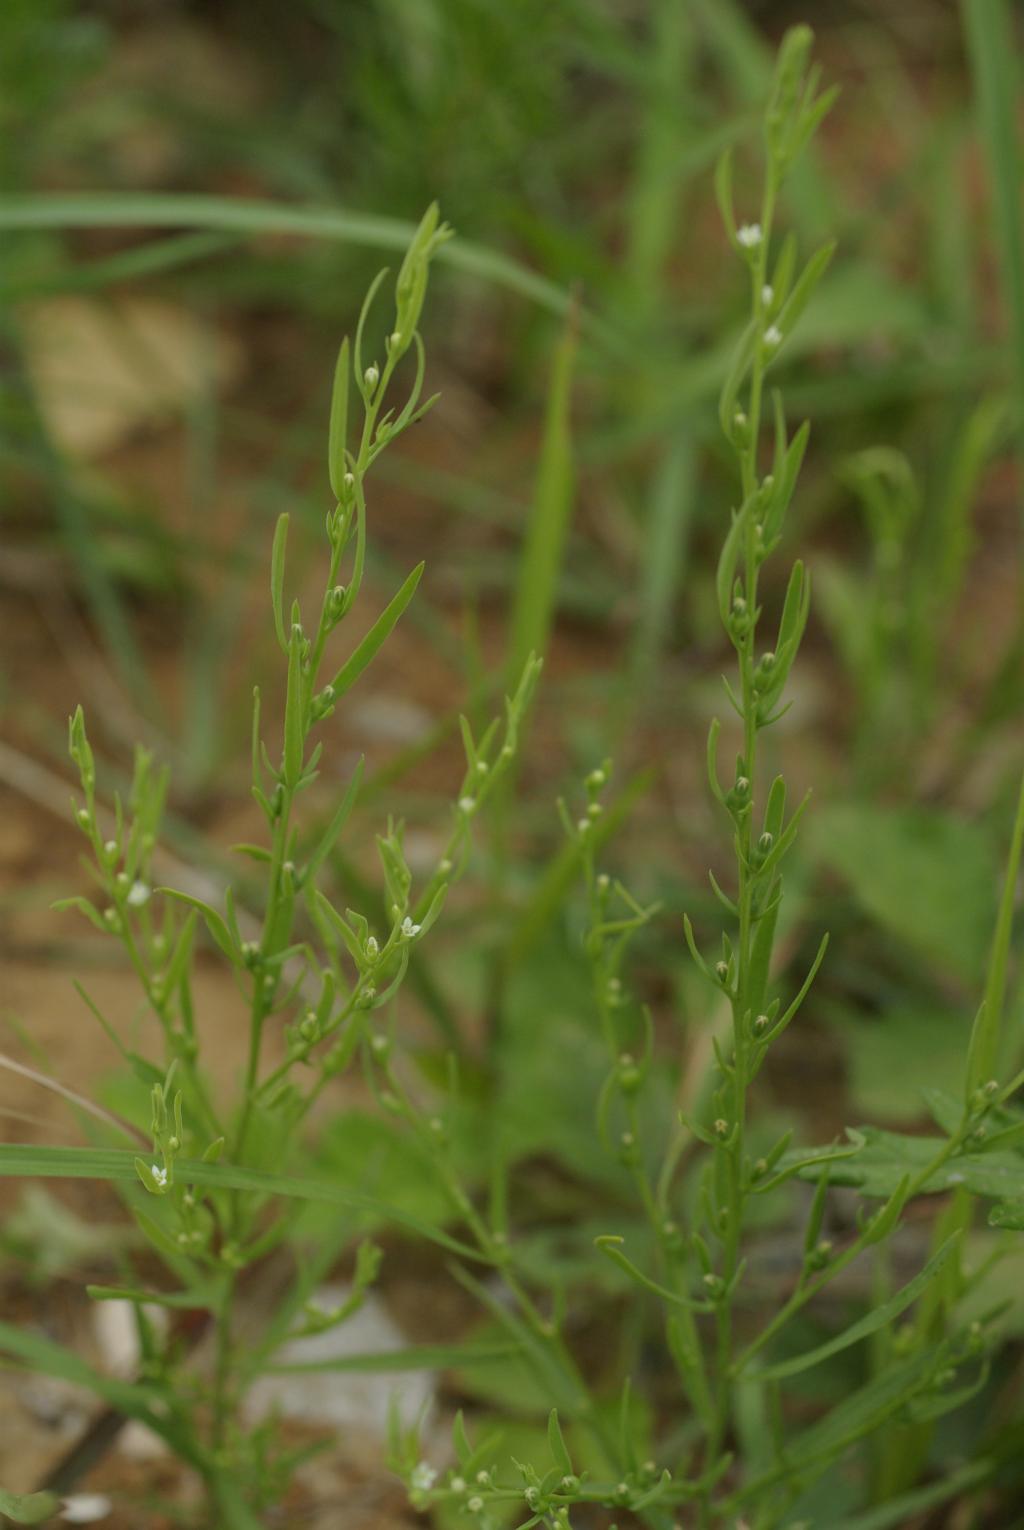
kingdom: Plantae
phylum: Tracheophyta
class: Magnoliopsida
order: Santalales
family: Thesiaceae
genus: Thesium
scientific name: Thesium chinense
